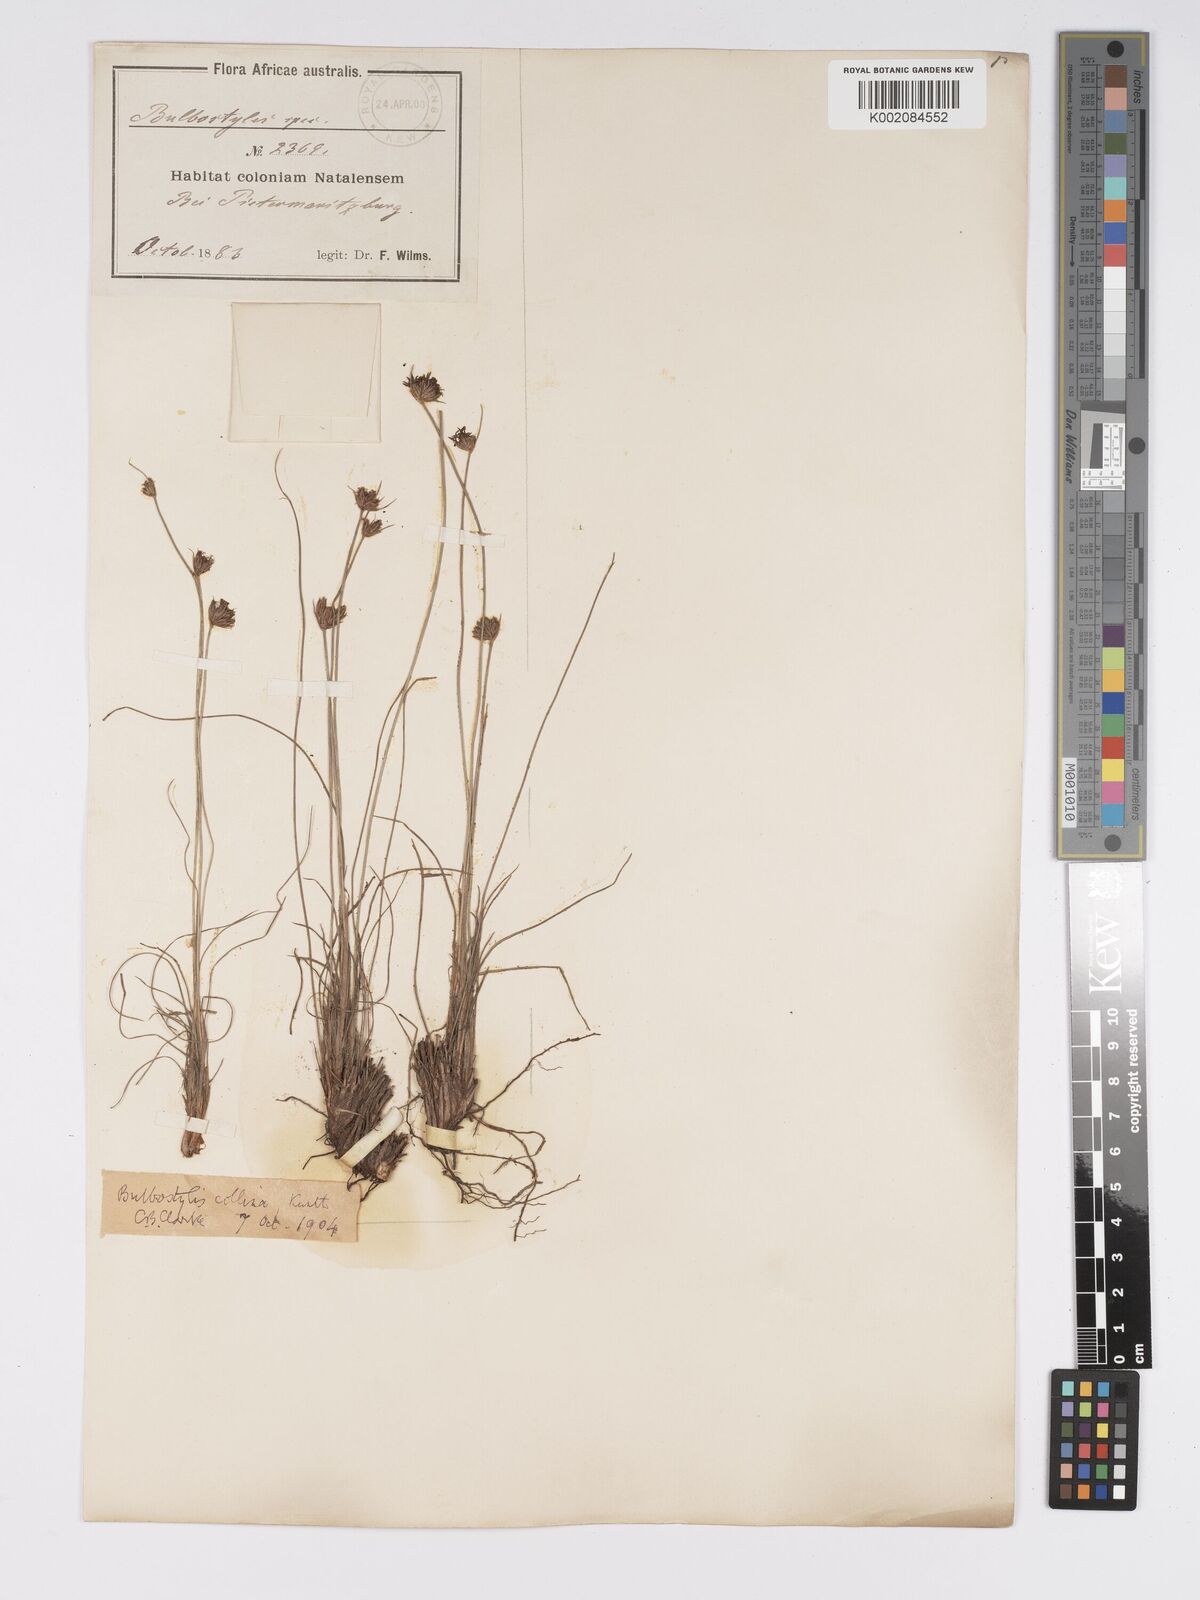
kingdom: Plantae
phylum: Tracheophyta
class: Liliopsida
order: Poales
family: Cyperaceae
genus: Bulbostylis
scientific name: Bulbostylis contexta
